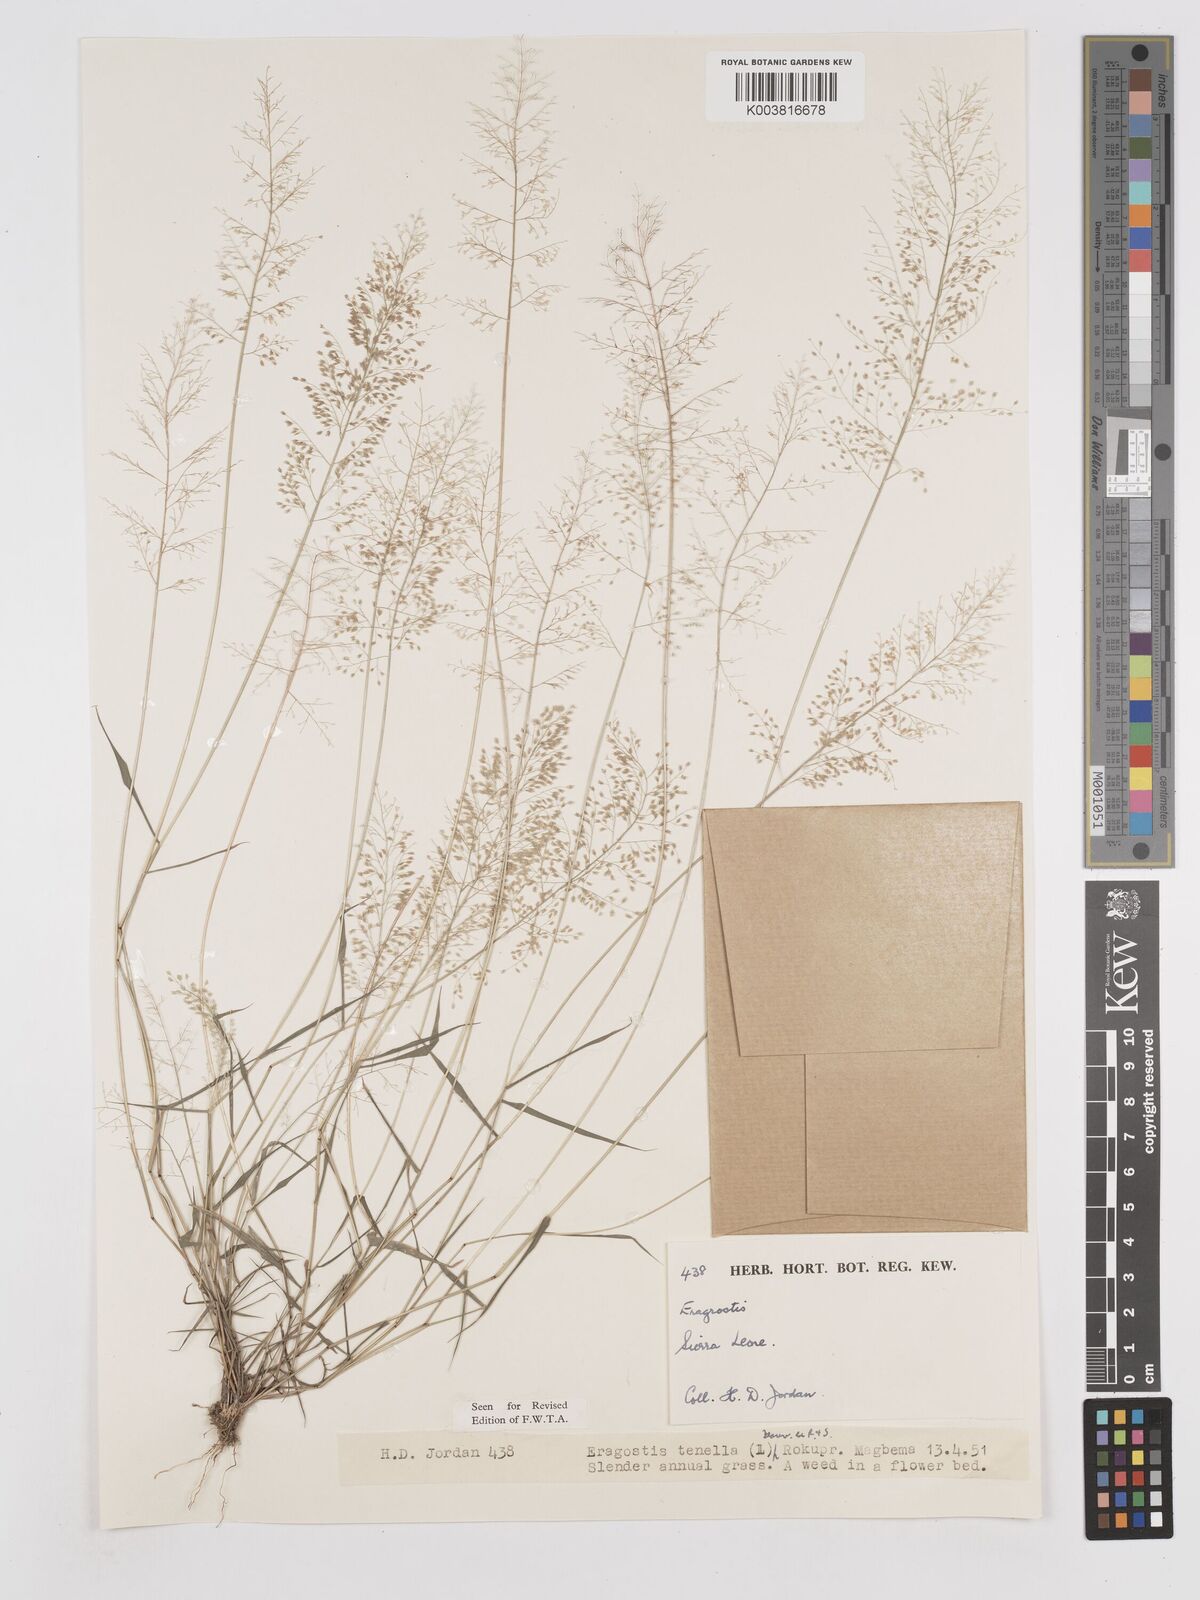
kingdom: Plantae
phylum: Tracheophyta
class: Liliopsida
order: Poales
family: Poaceae
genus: Eragrostis
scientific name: Eragrostis tenella
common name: Japanese lovegrass
